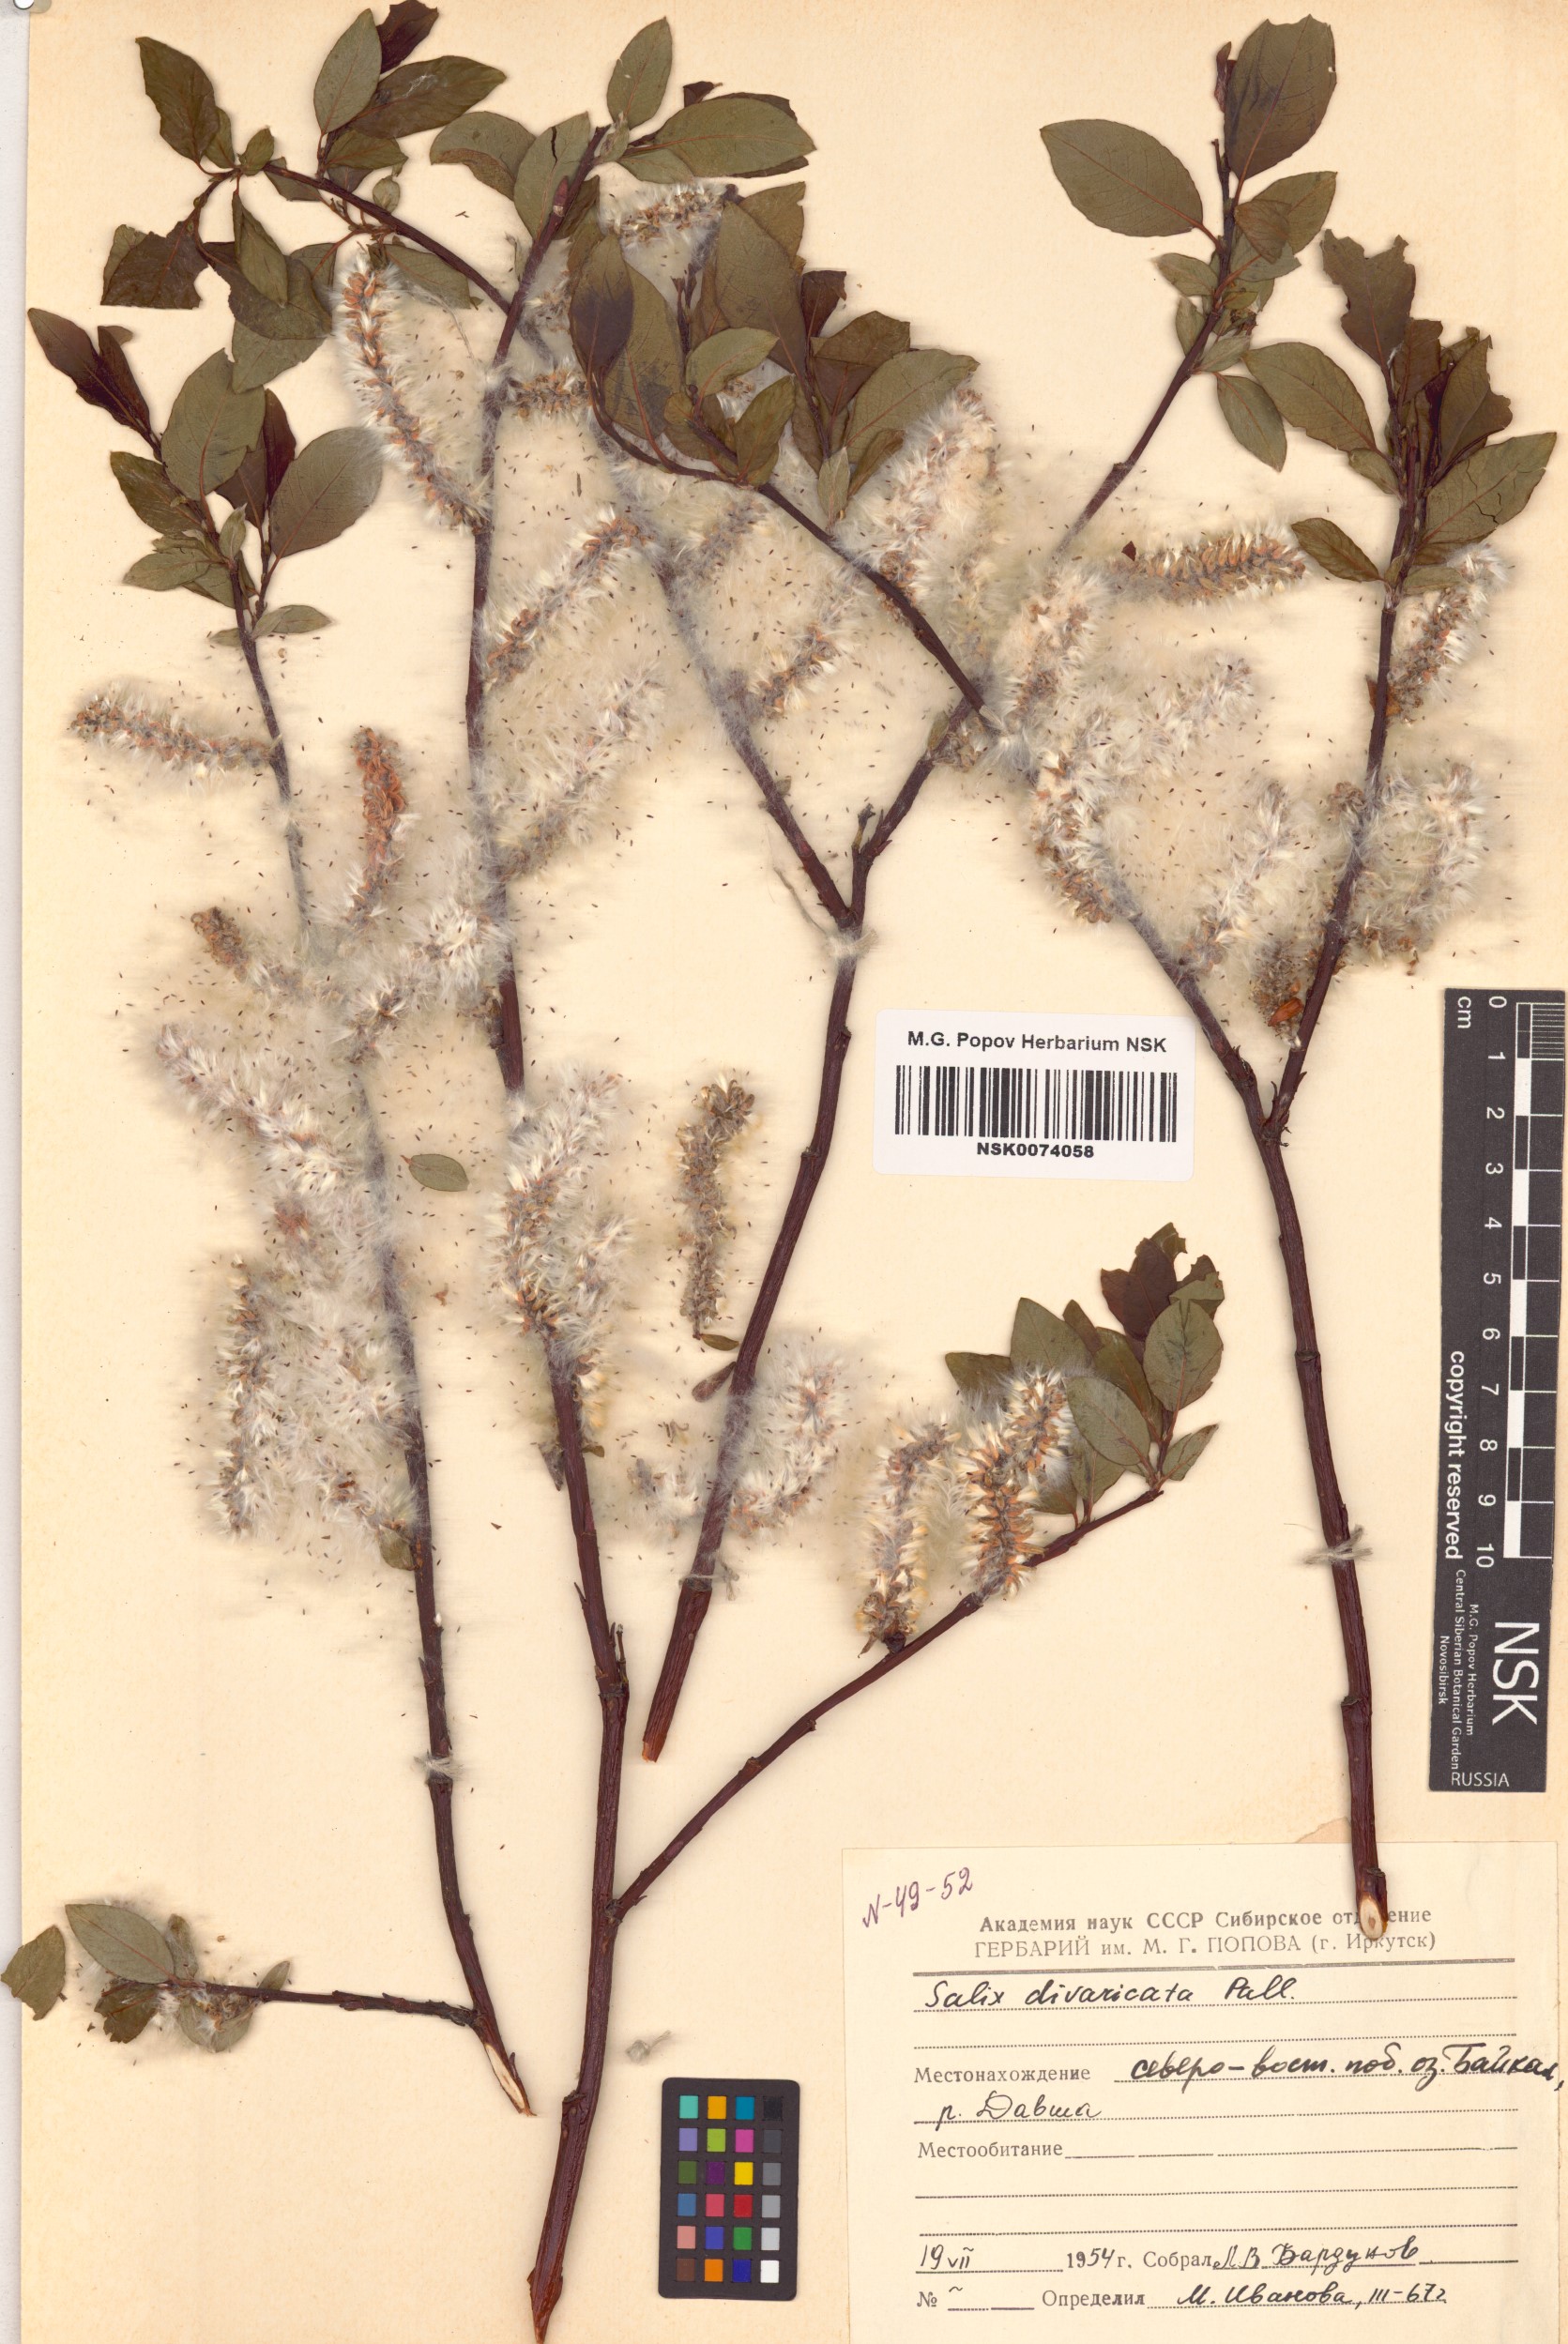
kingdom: Plantae
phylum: Tracheophyta
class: Magnoliopsida
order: Malpighiales
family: Salicaceae
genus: Salix
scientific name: Salix divaricata
